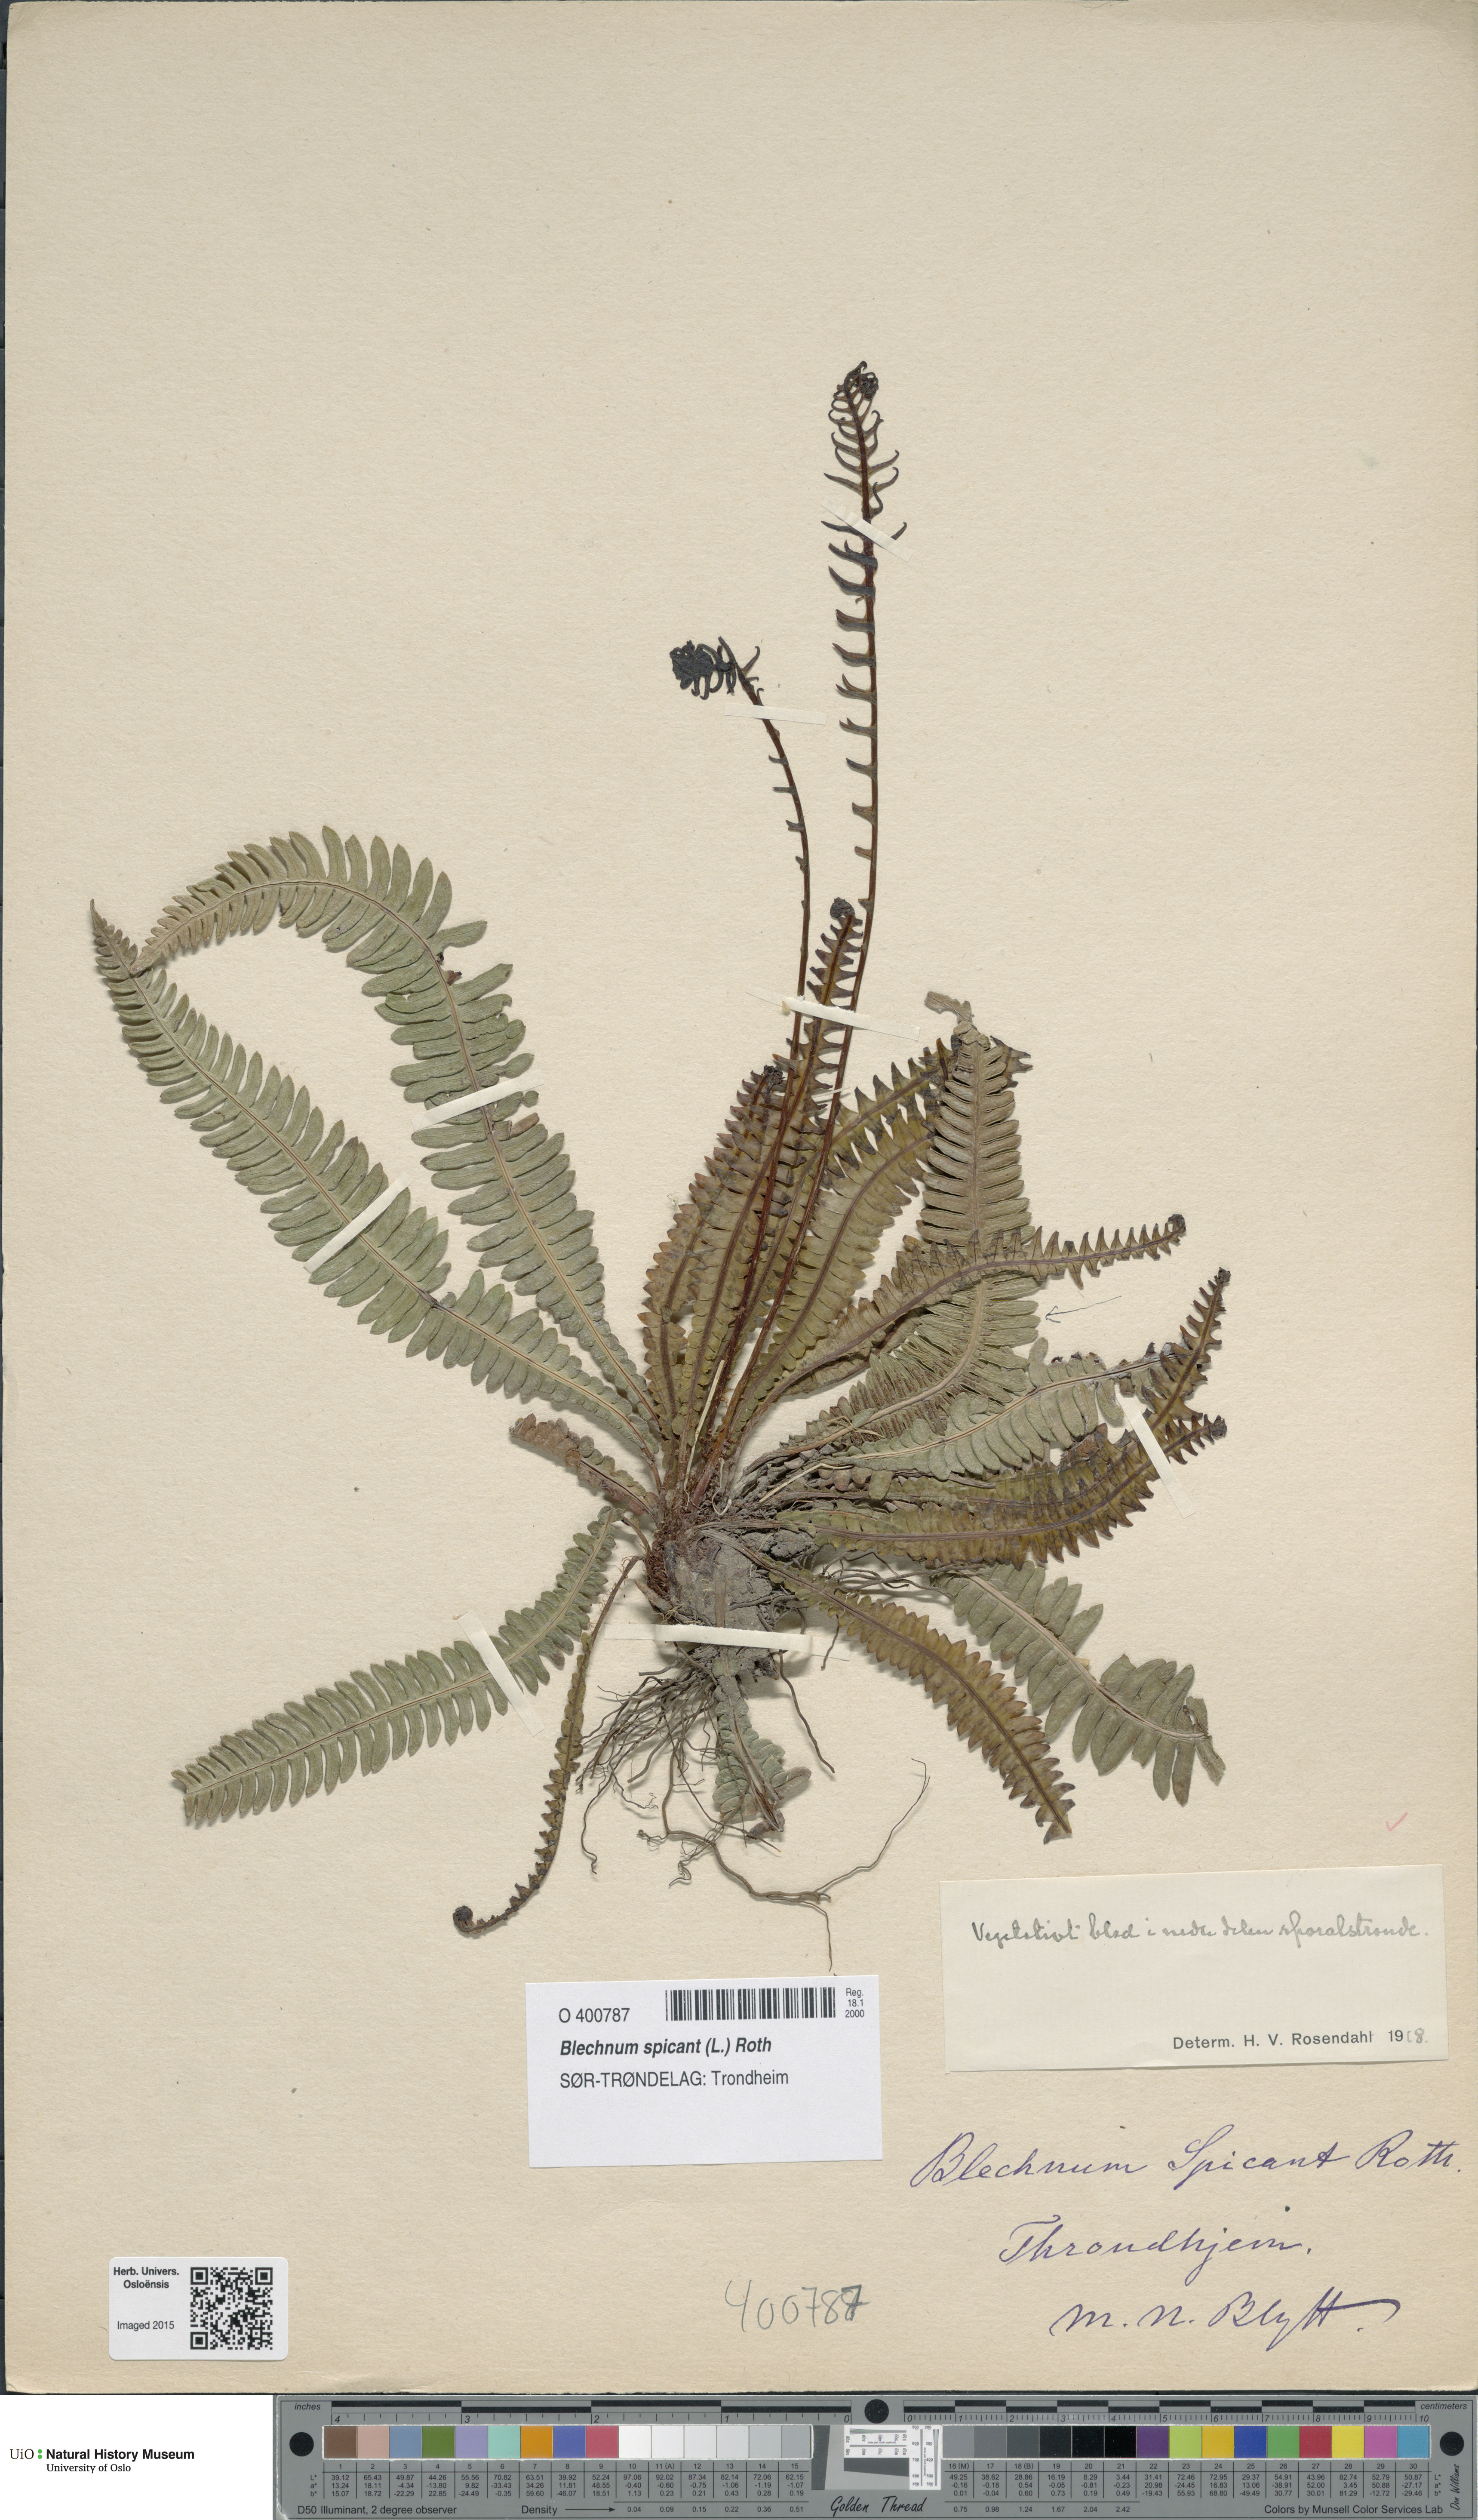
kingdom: Plantae
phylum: Tracheophyta
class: Polypodiopsida
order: Polypodiales
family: Blechnaceae
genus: Struthiopteris
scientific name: Struthiopteris spicant
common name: Deer fern
